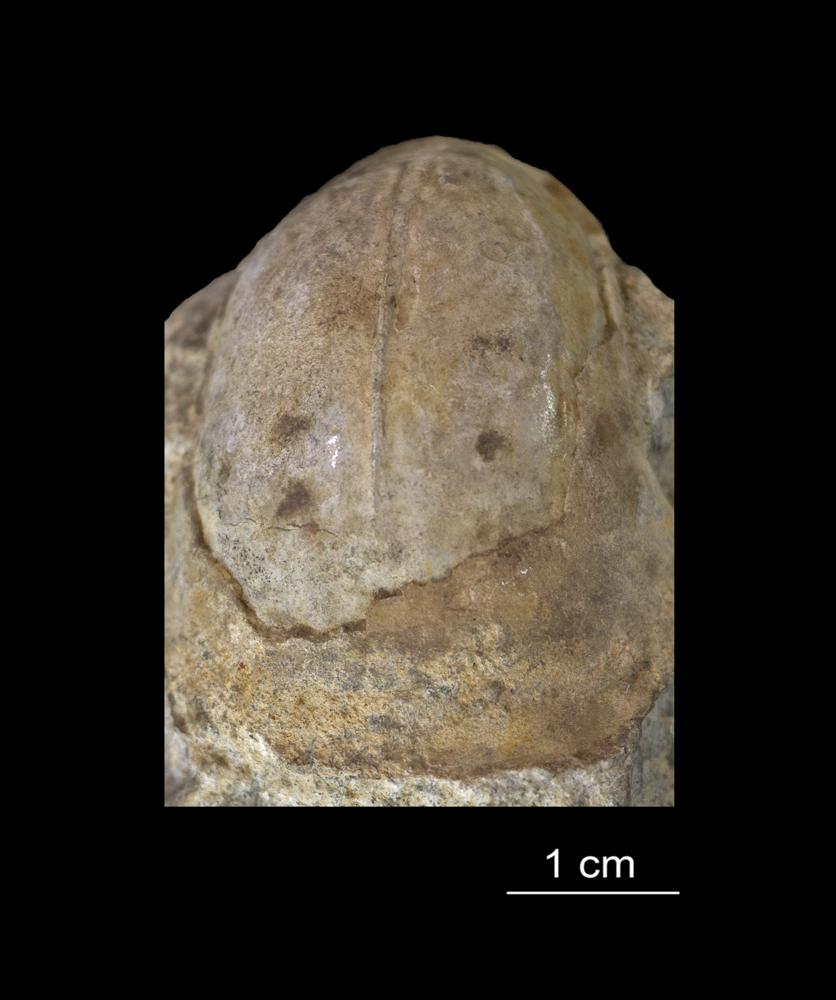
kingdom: Animalia
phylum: Mollusca
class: Gastropoda
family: Bucaniidae
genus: Salpingostoma
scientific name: Salpingostoma locator
